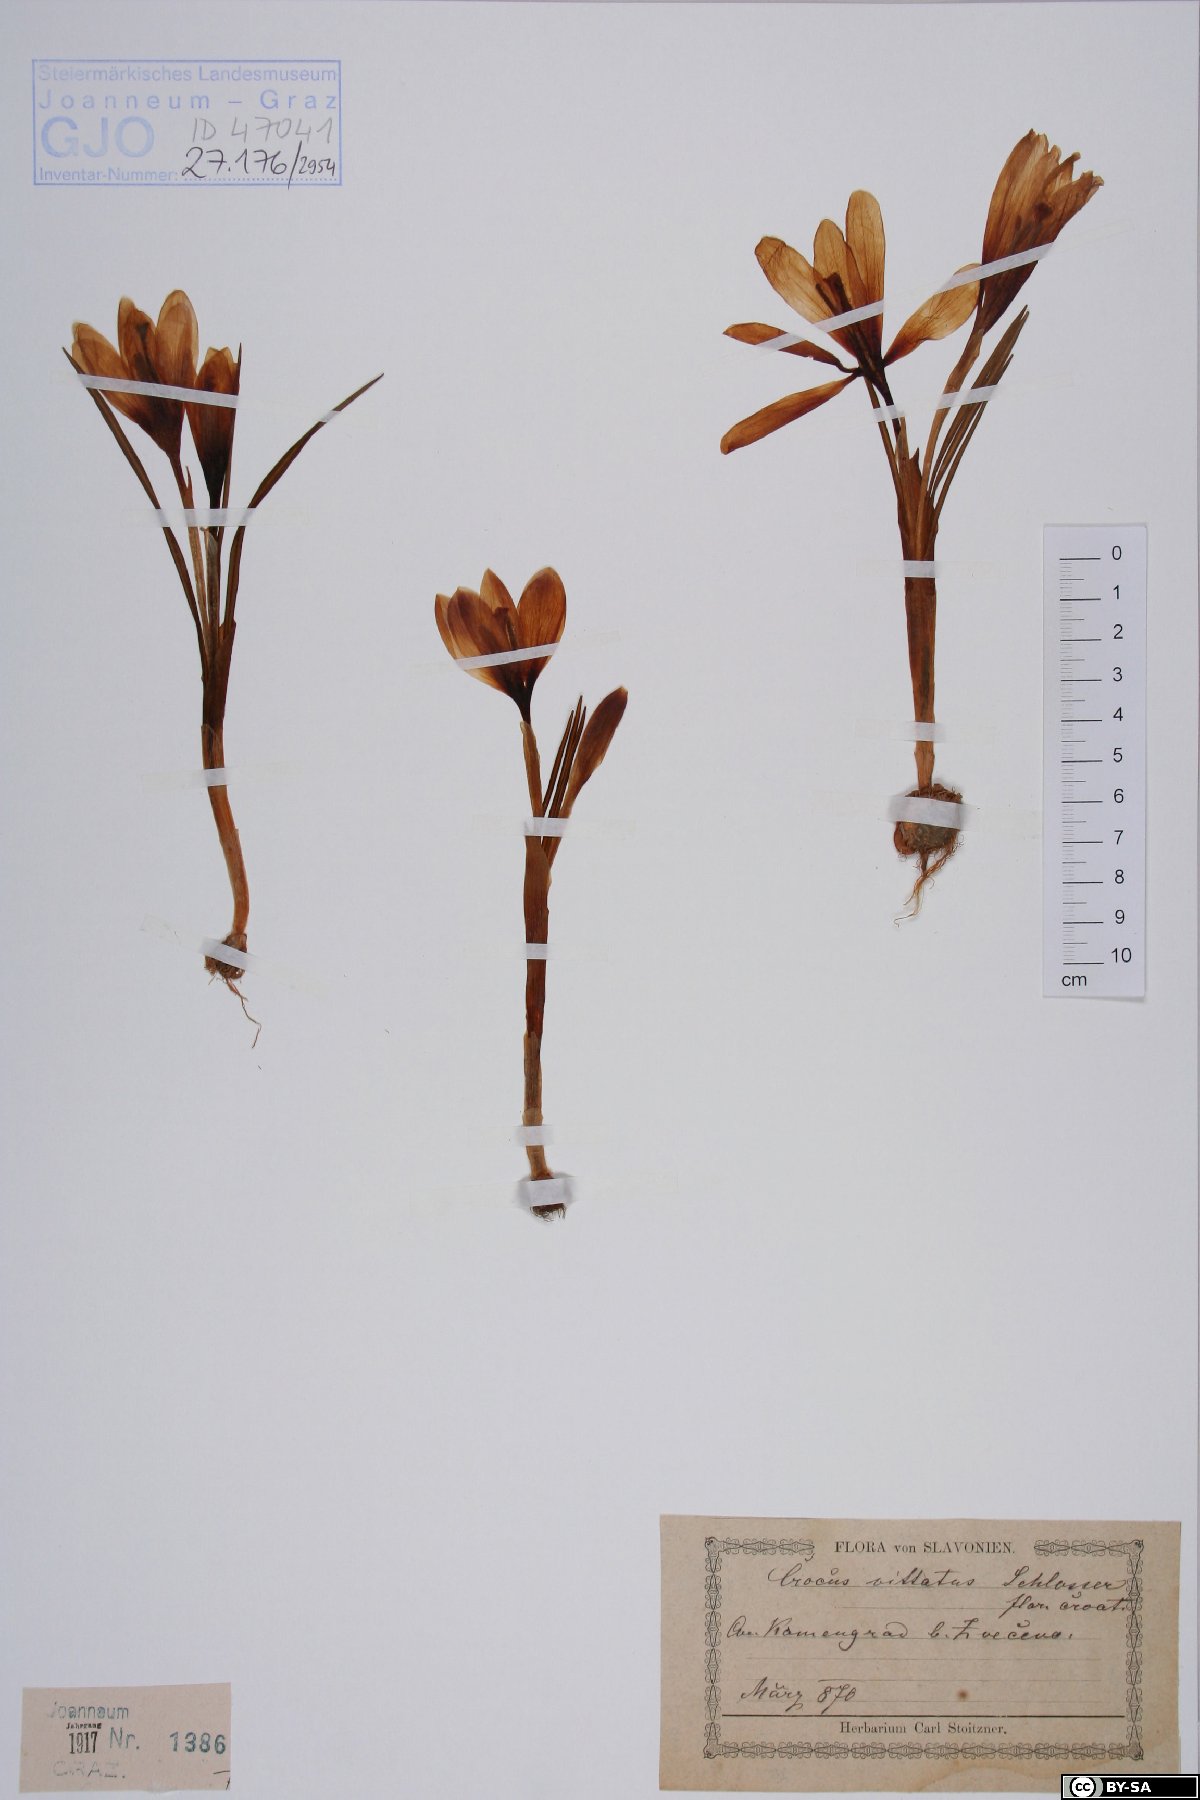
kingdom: Plantae
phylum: Tracheophyta
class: Liliopsida
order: Asparagales
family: Iridaceae
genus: Crocus
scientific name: Crocus heuffelianus
